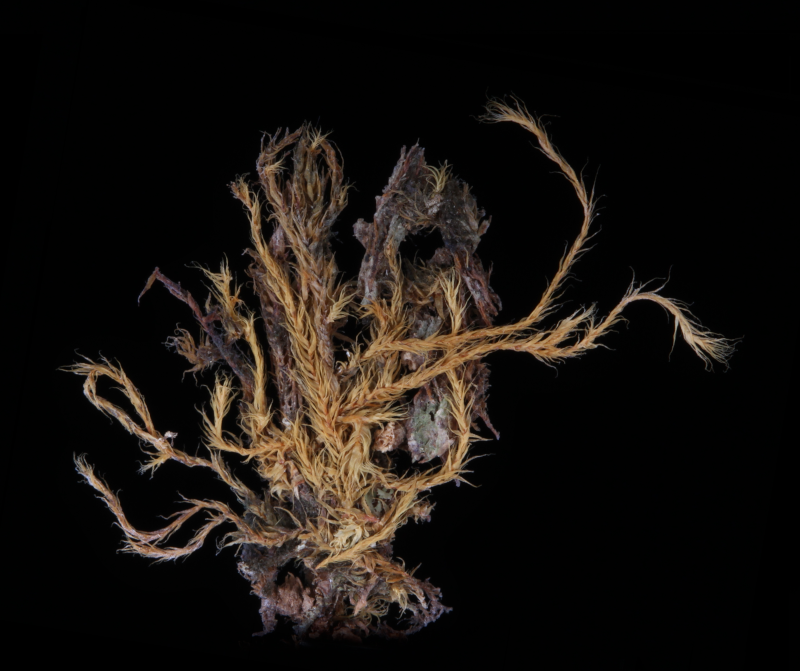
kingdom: Plantae
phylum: Bryophyta
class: Bryopsida
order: Hypnales
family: Meteoriaceae
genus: Neodicladiella
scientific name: Neodicladiella pendula
